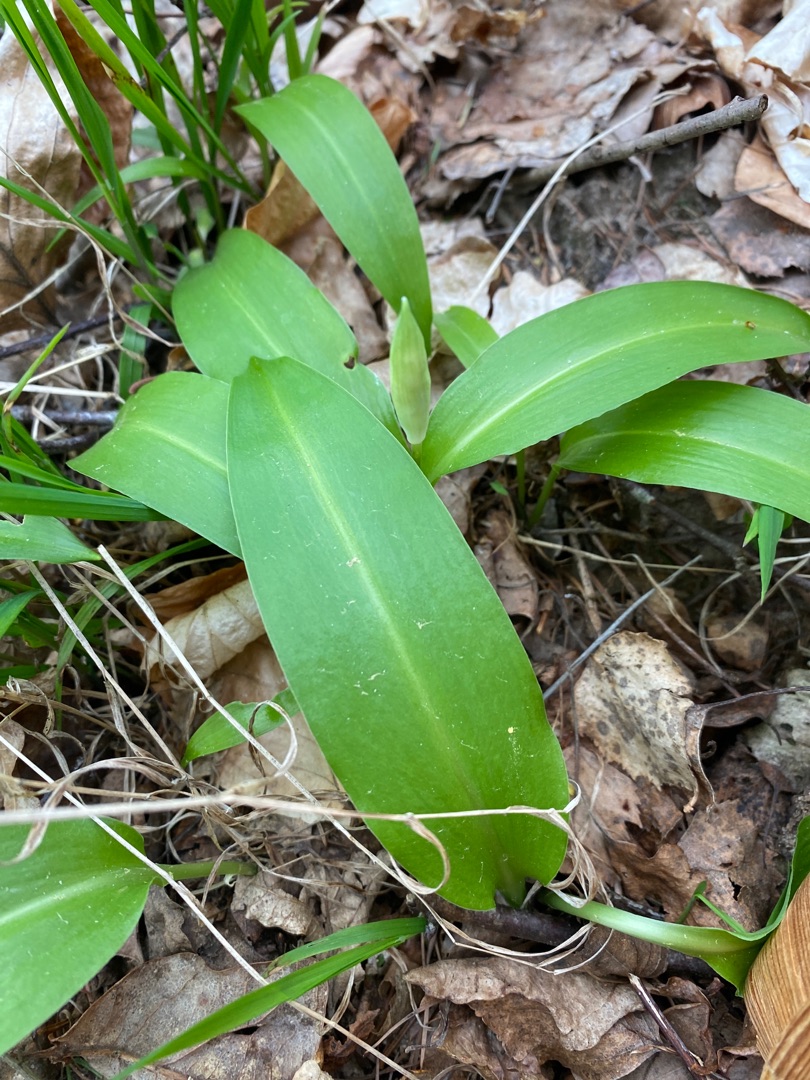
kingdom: Plantae
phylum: Tracheophyta
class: Liliopsida
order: Asparagales
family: Amaryllidaceae
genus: Allium
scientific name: Allium ursinum
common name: Rams-løg
